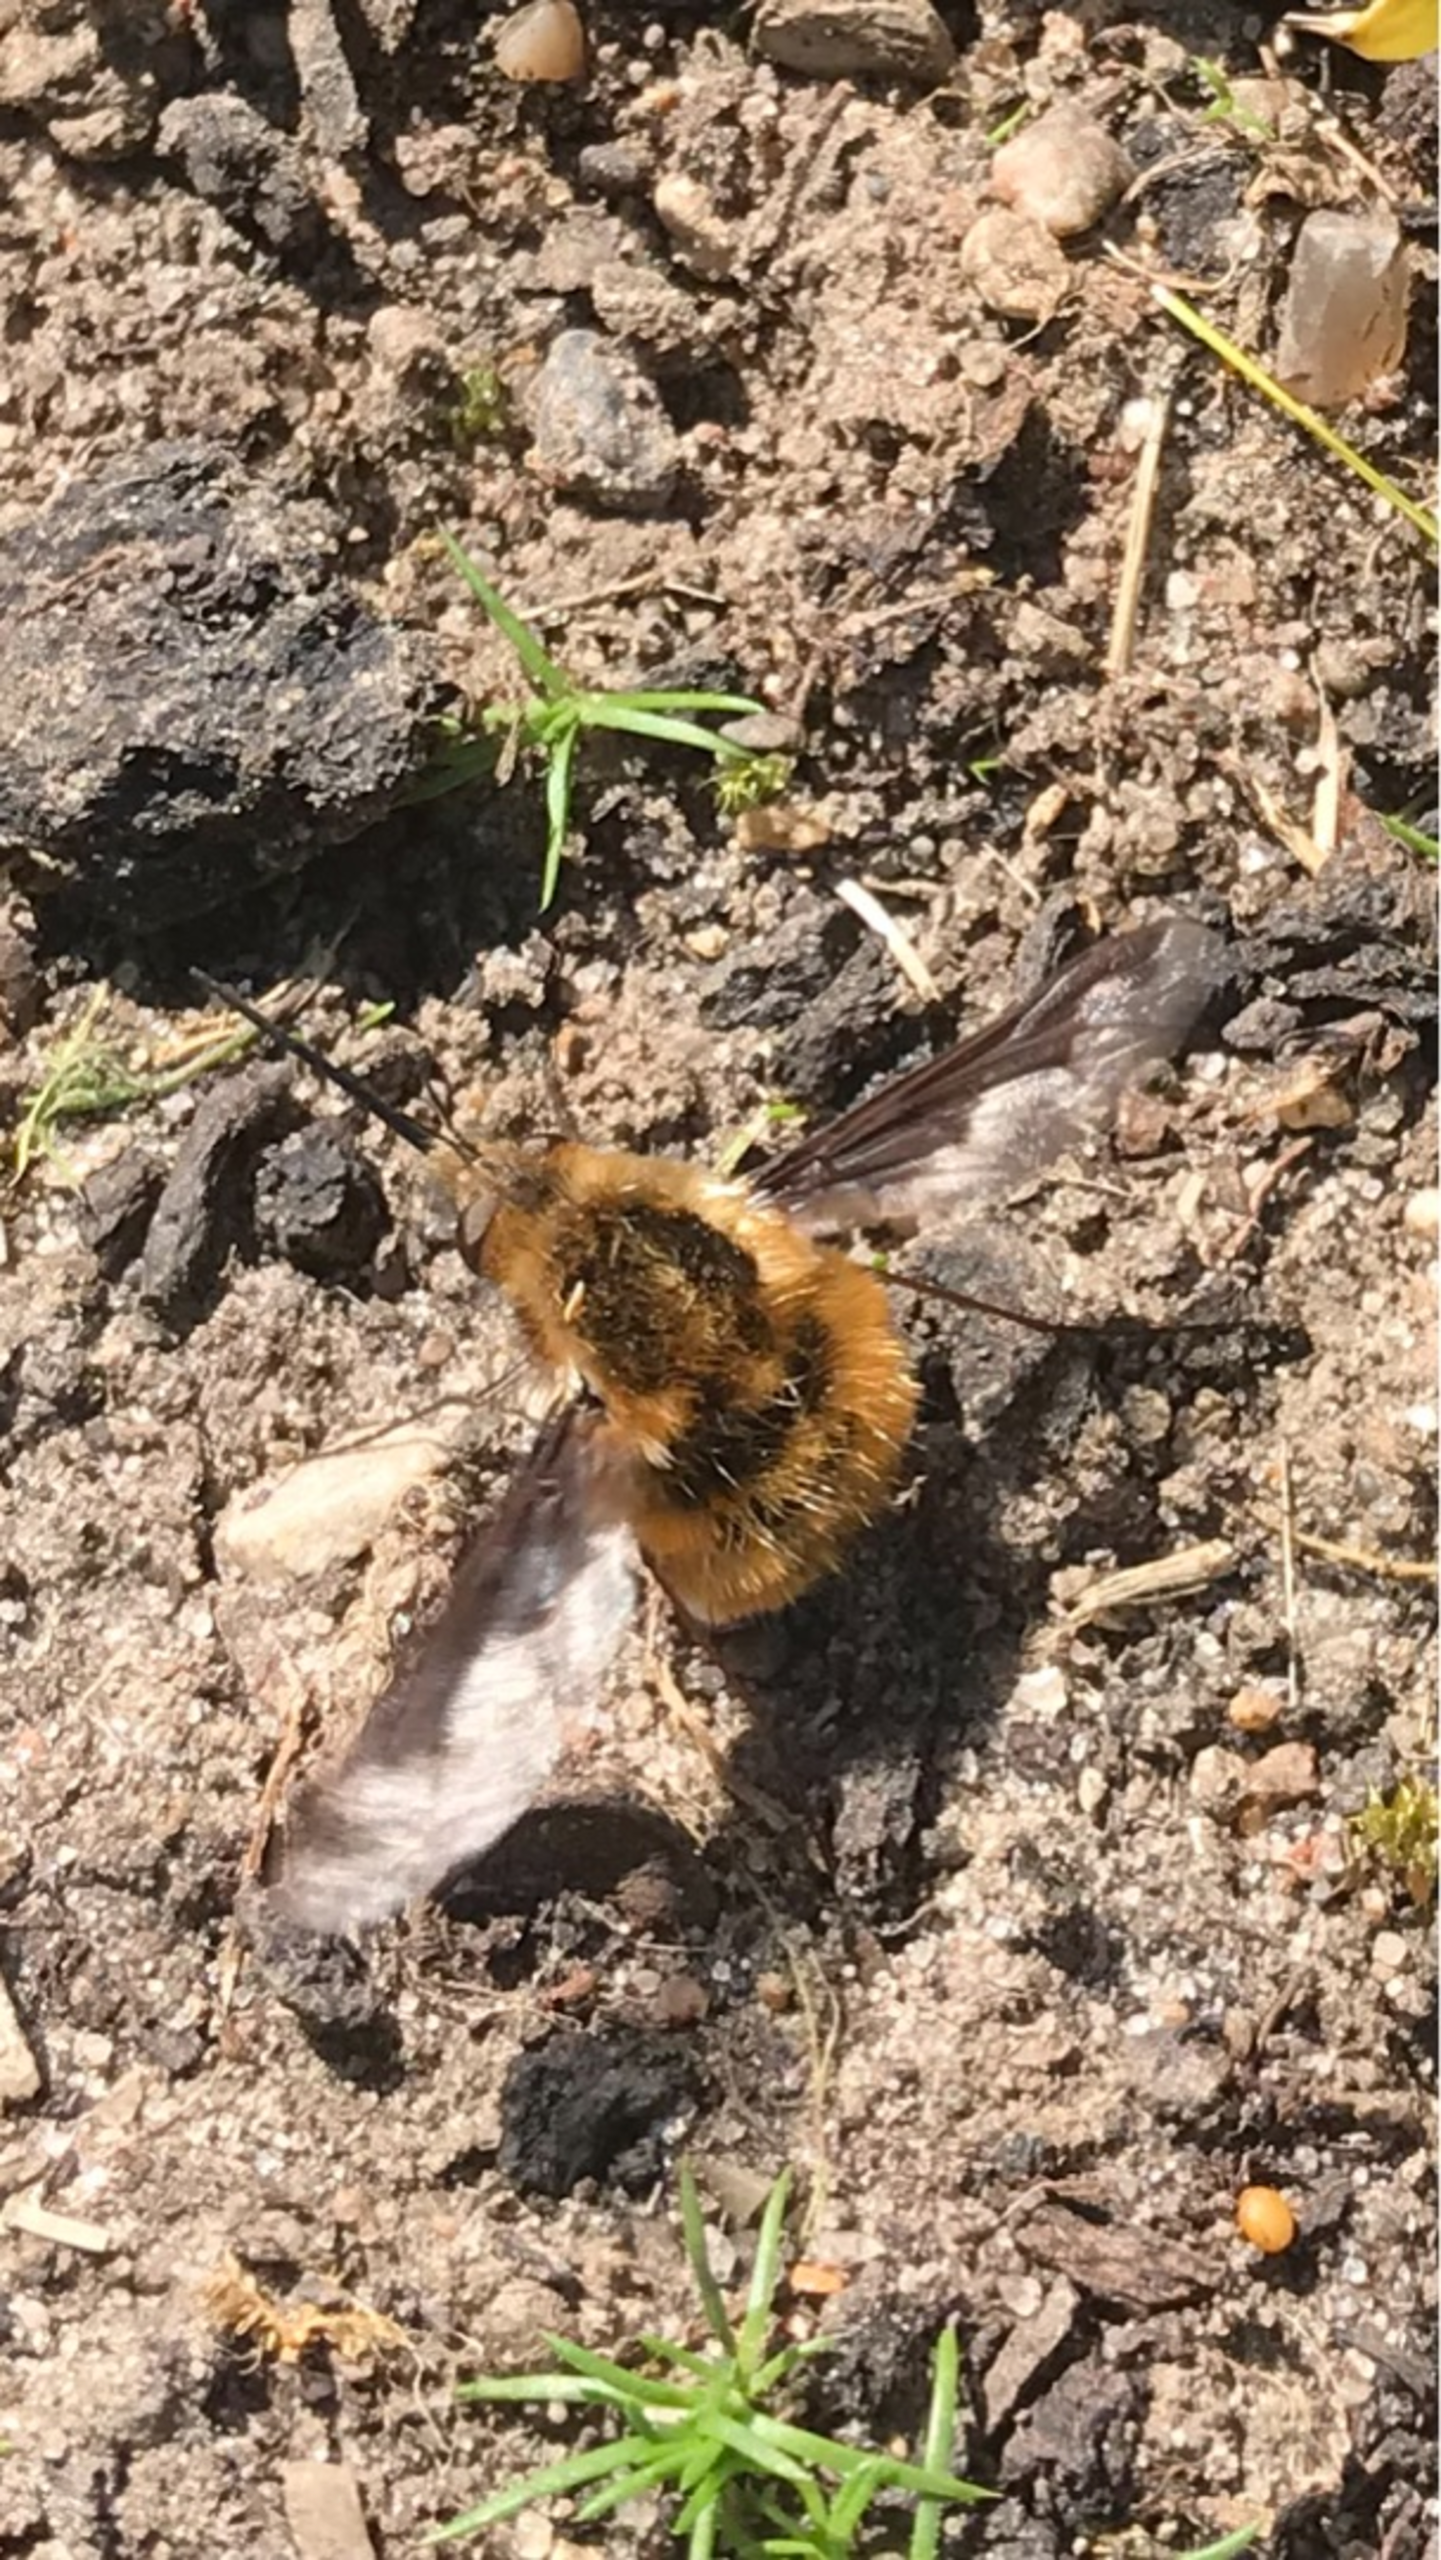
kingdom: Animalia
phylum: Arthropoda
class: Insecta
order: Diptera
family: Bombyliidae
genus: Bombylius
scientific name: Bombylius major
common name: Stor humleflue
